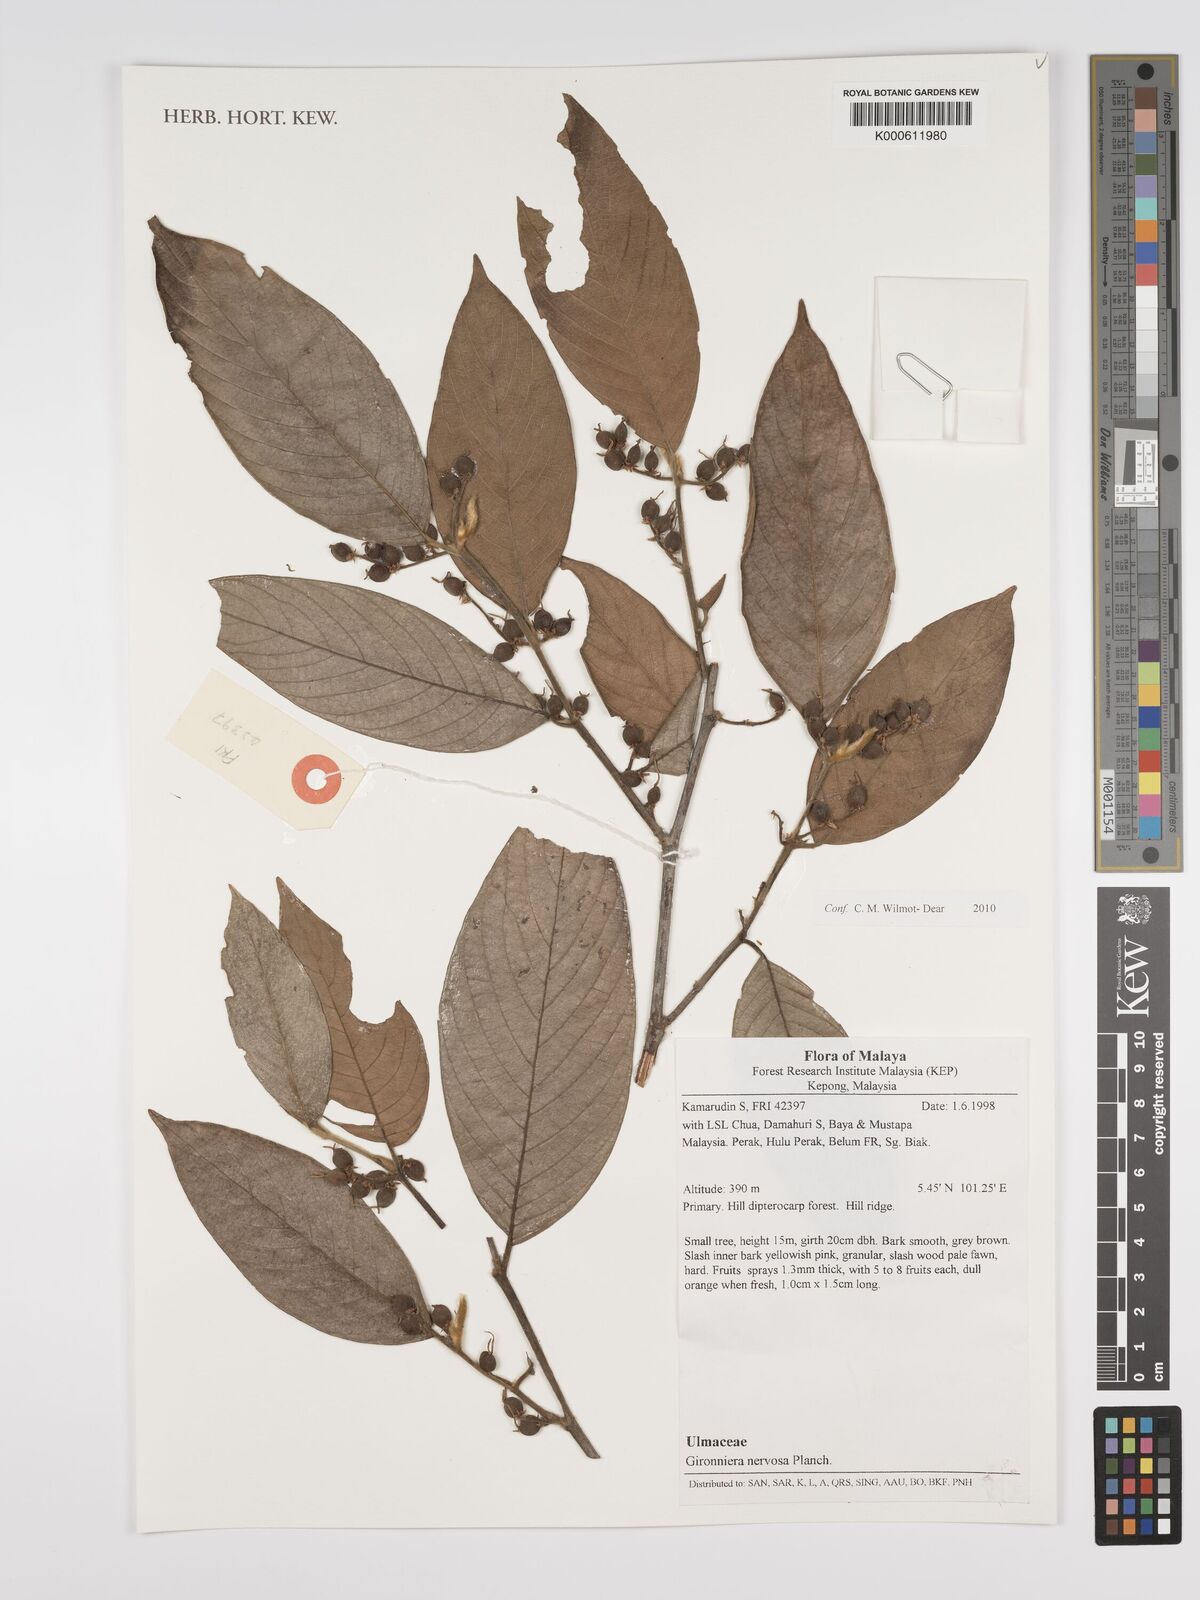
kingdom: Plantae
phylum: Tracheophyta
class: Magnoliopsida
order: Rosales
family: Cannabaceae
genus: Gironniera
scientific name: Gironniera nervosa
